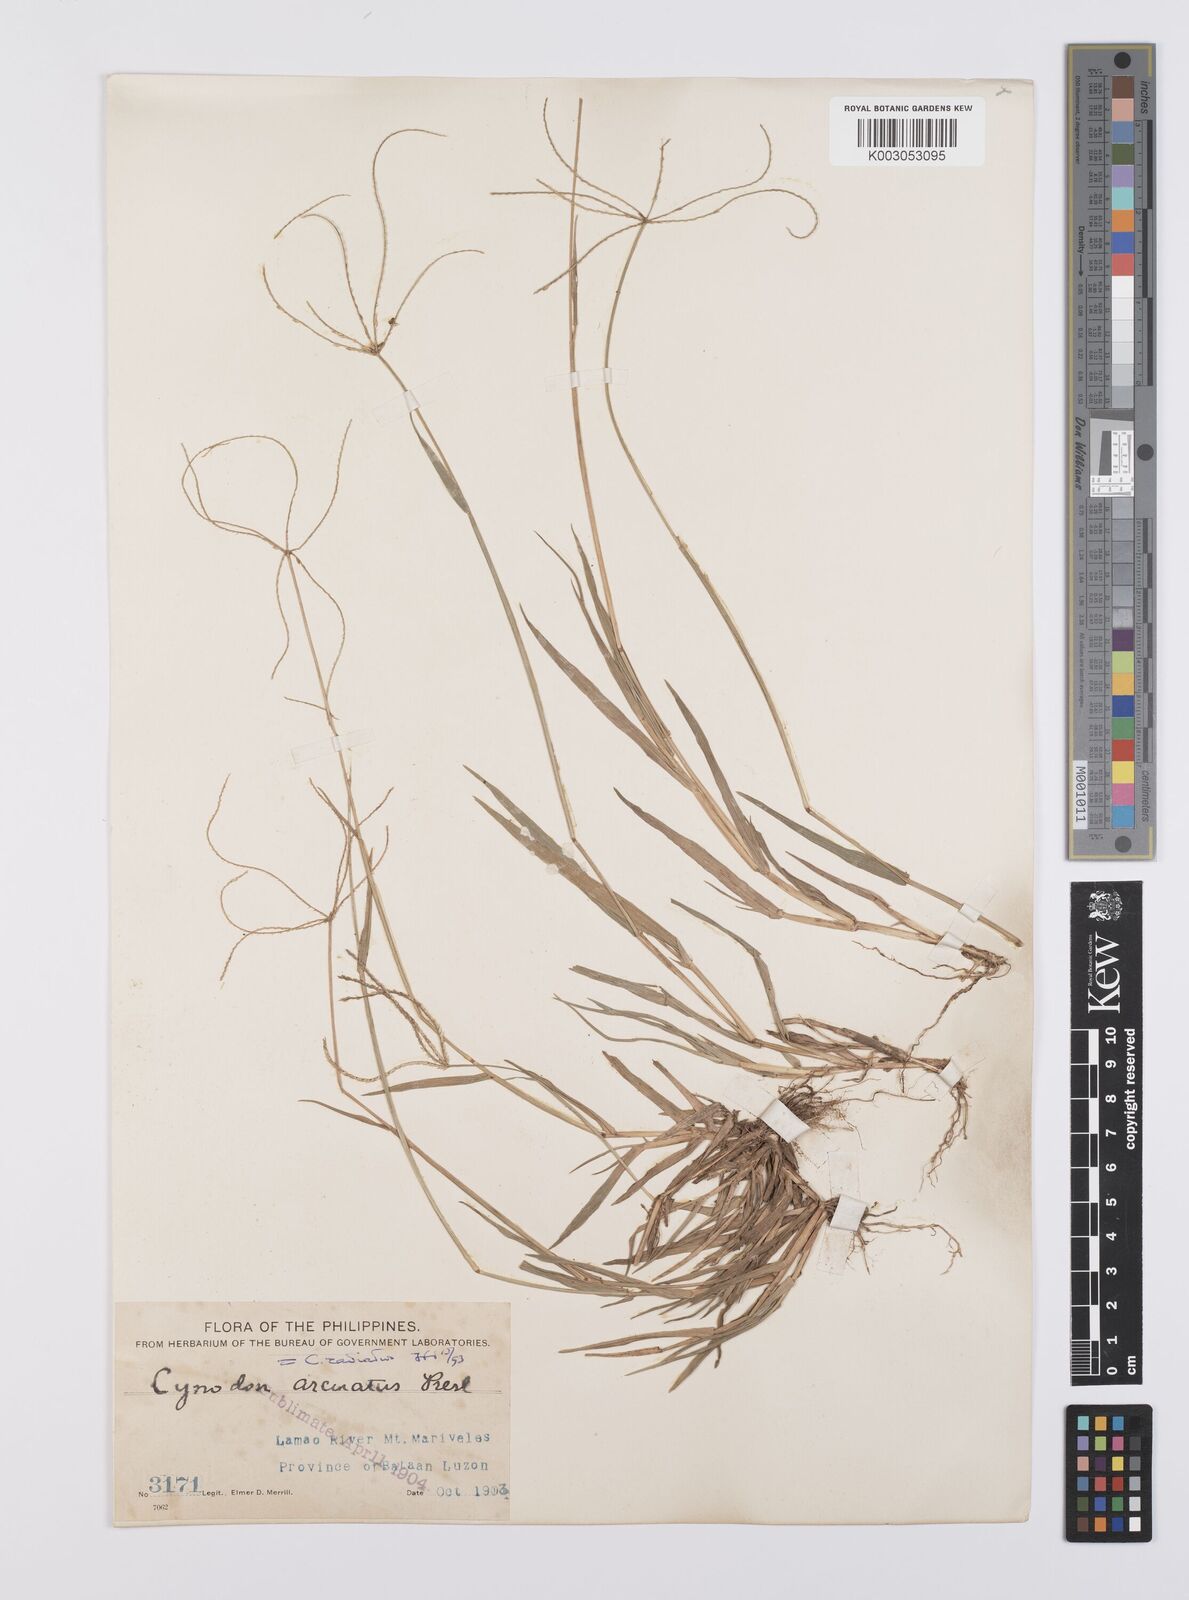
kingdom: Plantae
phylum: Tracheophyta
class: Liliopsida
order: Poales
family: Poaceae
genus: Cynodon
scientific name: Cynodon radiatus
